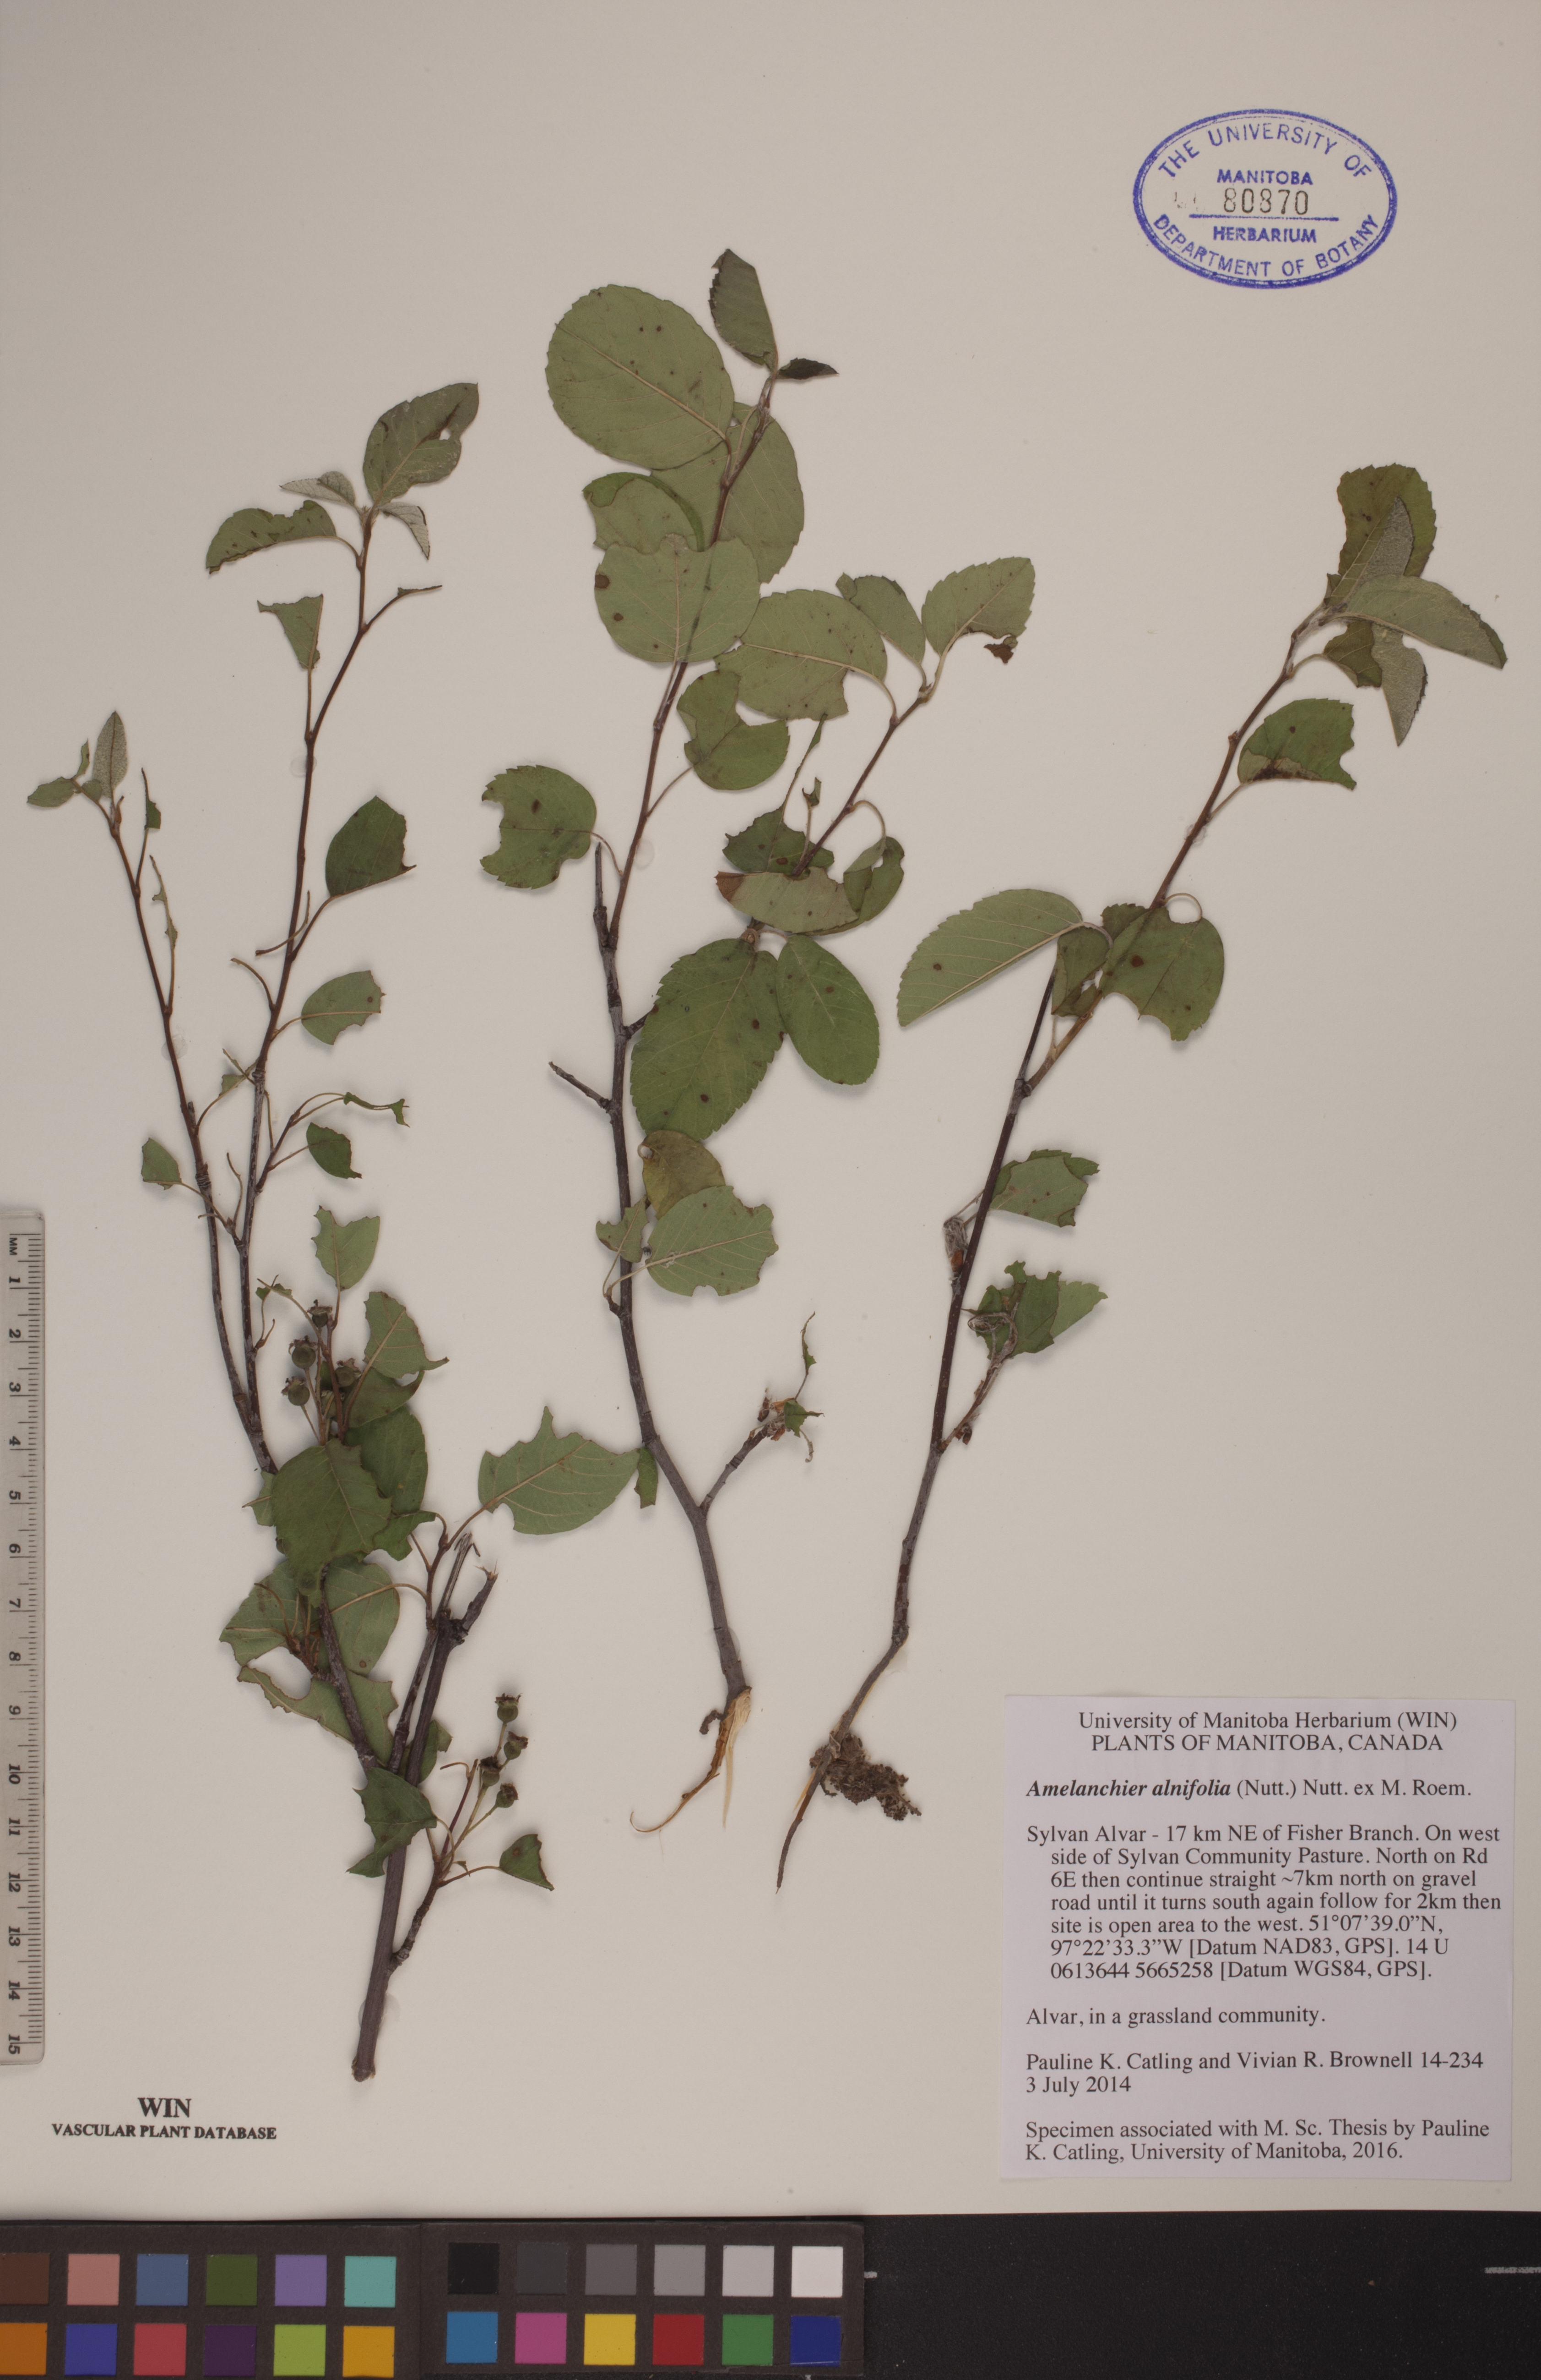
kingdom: Plantae
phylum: Tracheophyta
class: Magnoliopsida
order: Rosales
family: Rosaceae
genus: Amelanchier
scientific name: Amelanchier alnifolia
